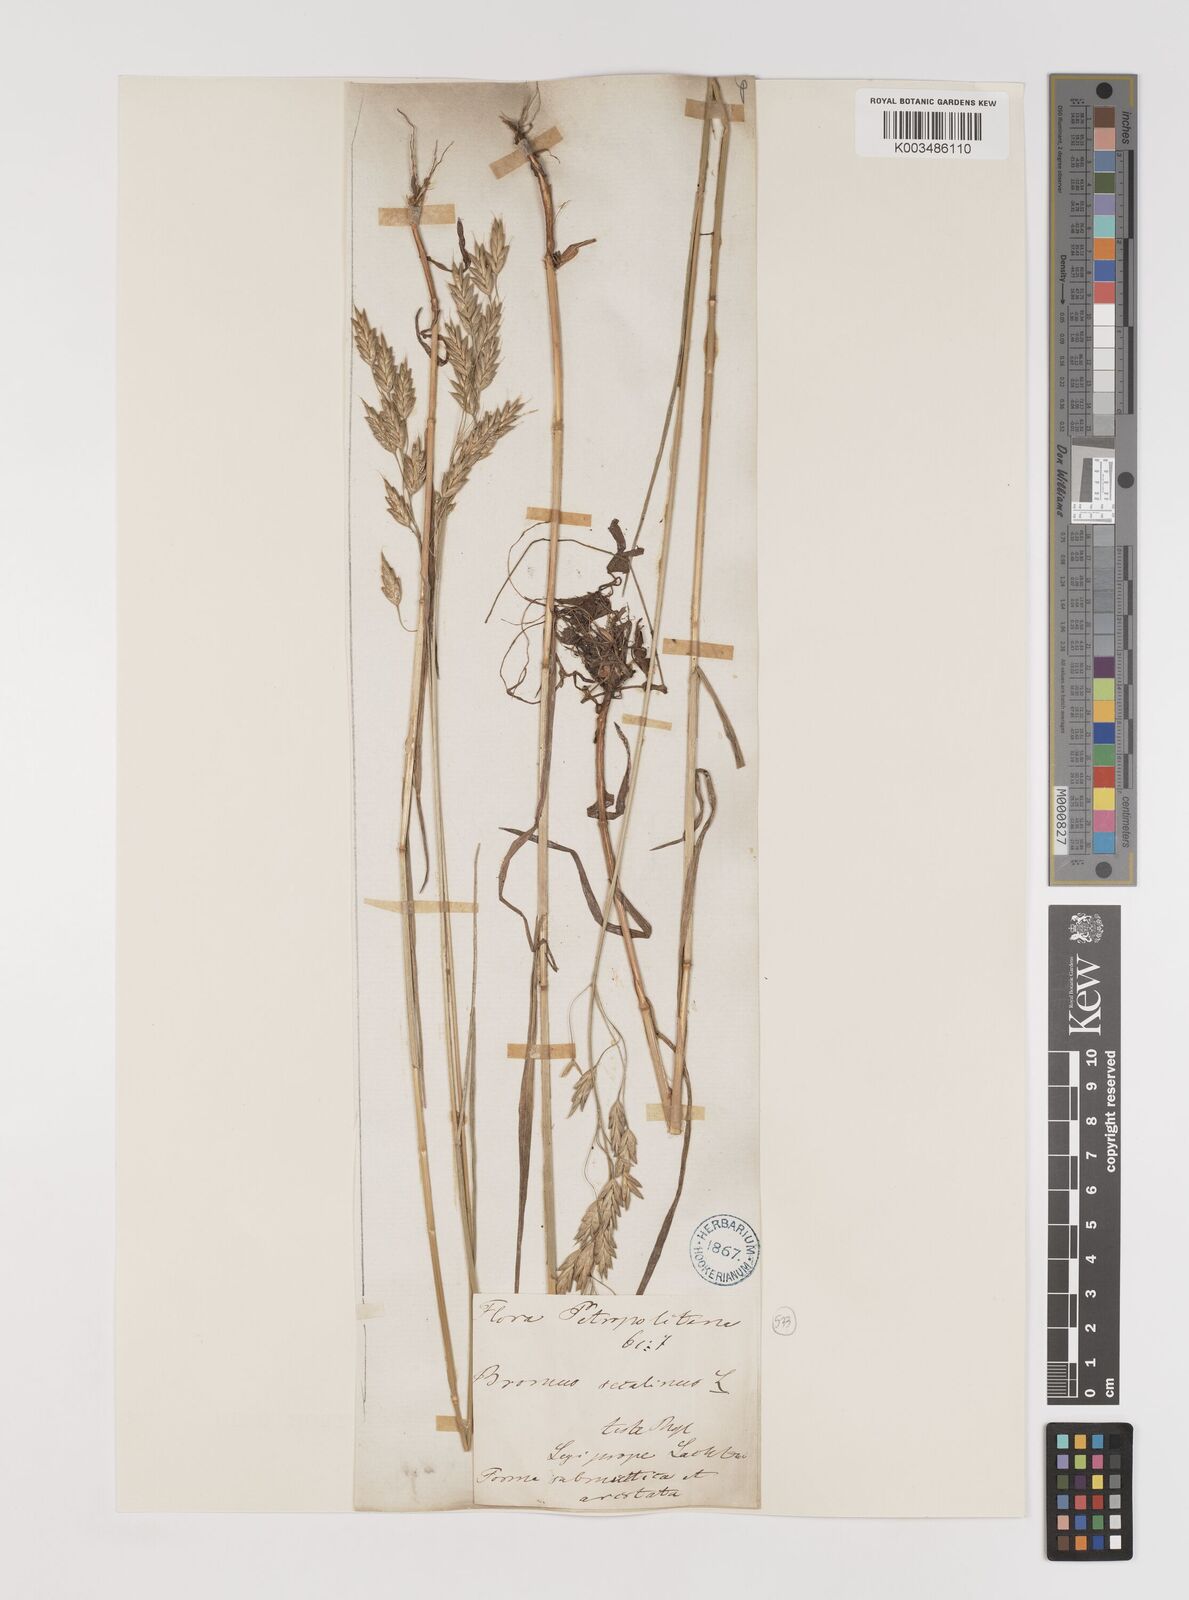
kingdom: Plantae
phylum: Tracheophyta
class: Liliopsida
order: Poales
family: Poaceae
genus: Bromus
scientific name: Bromus secalinus
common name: Rye brome
